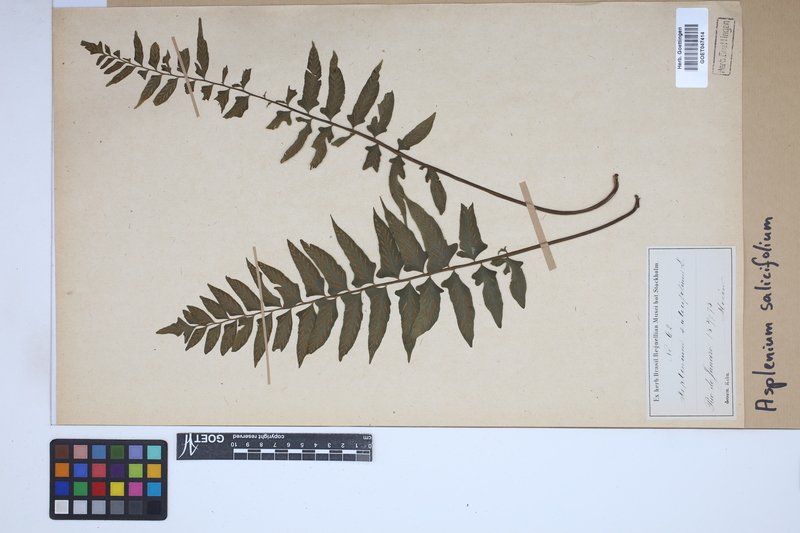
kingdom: Plantae
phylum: Tracheophyta
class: Polypodiopsida
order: Polypodiales
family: Aspleniaceae
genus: Asplenium
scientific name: Asplenium salicifolium
